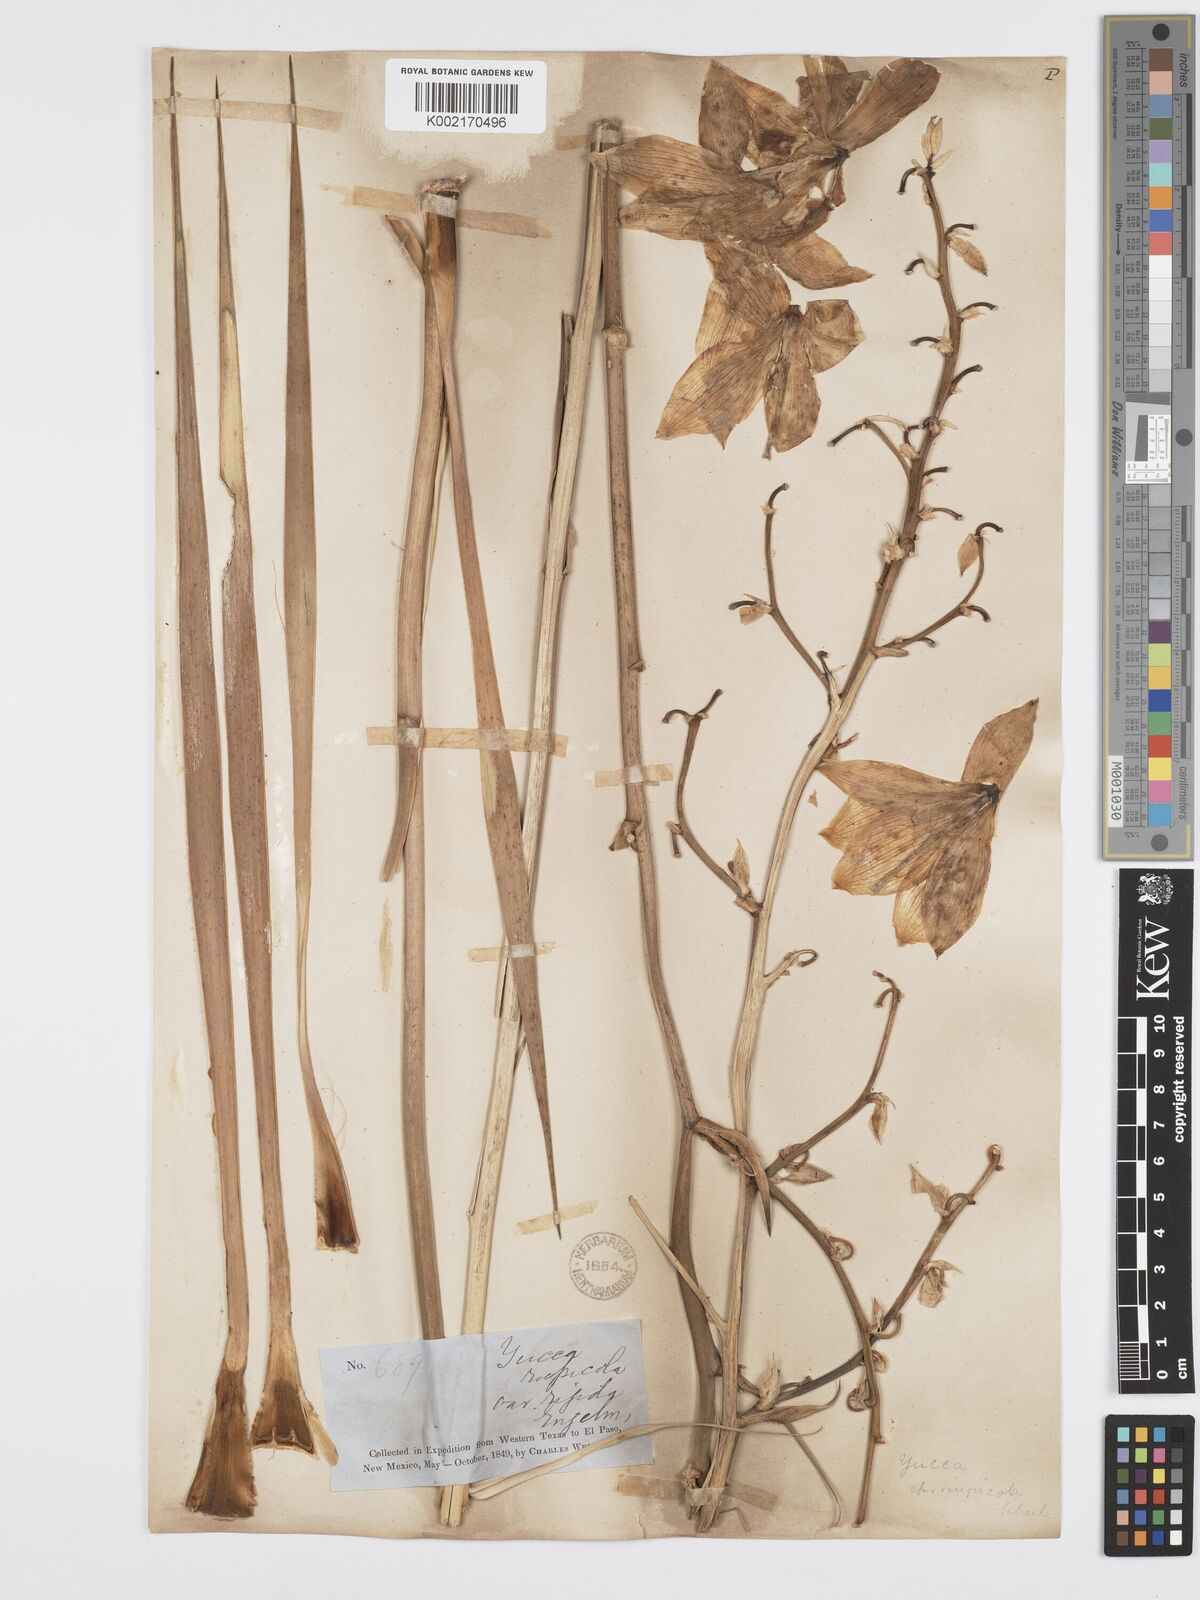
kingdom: Plantae
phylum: Tracheophyta
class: Liliopsida
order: Asparagales
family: Asparagaceae
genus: Yucca
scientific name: Yucca rupicola
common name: Twisted-leaf spanish-dagger
